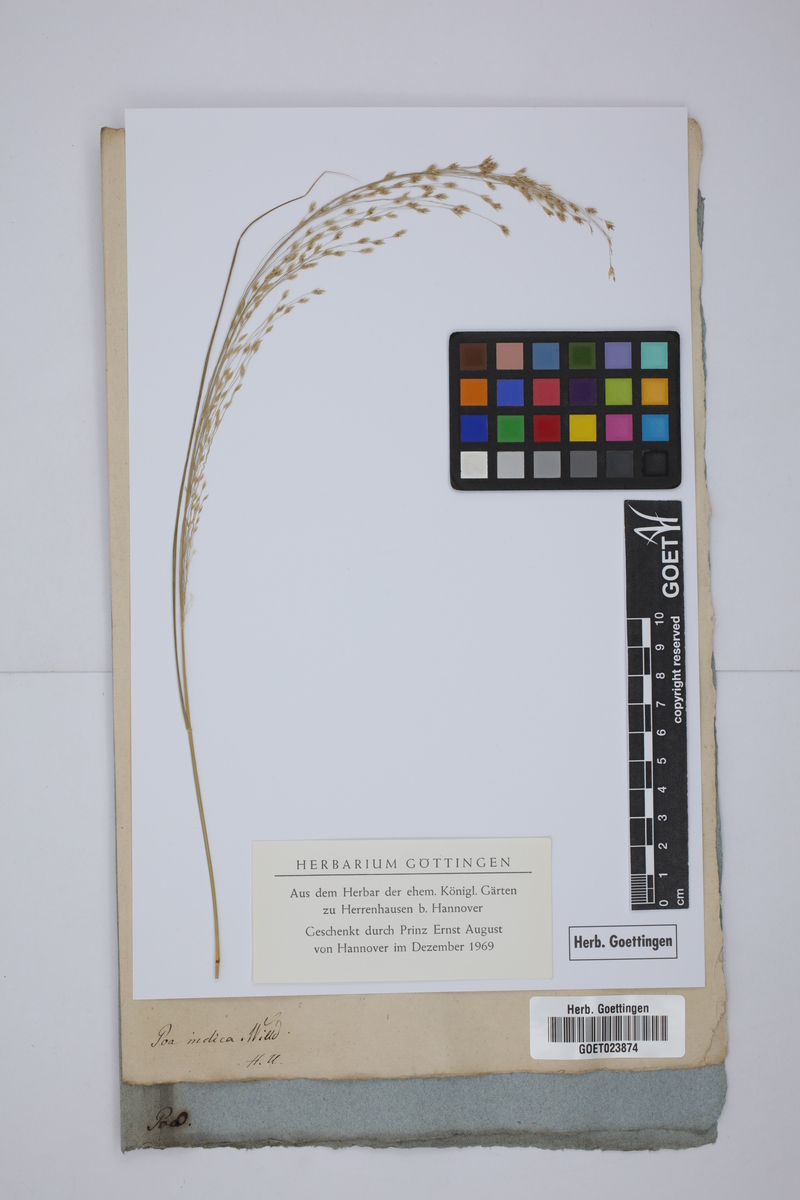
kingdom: Plantae
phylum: Tracheophyta
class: Liliopsida
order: Poales
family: Poaceae
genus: Eragrostis
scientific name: Eragrostis
